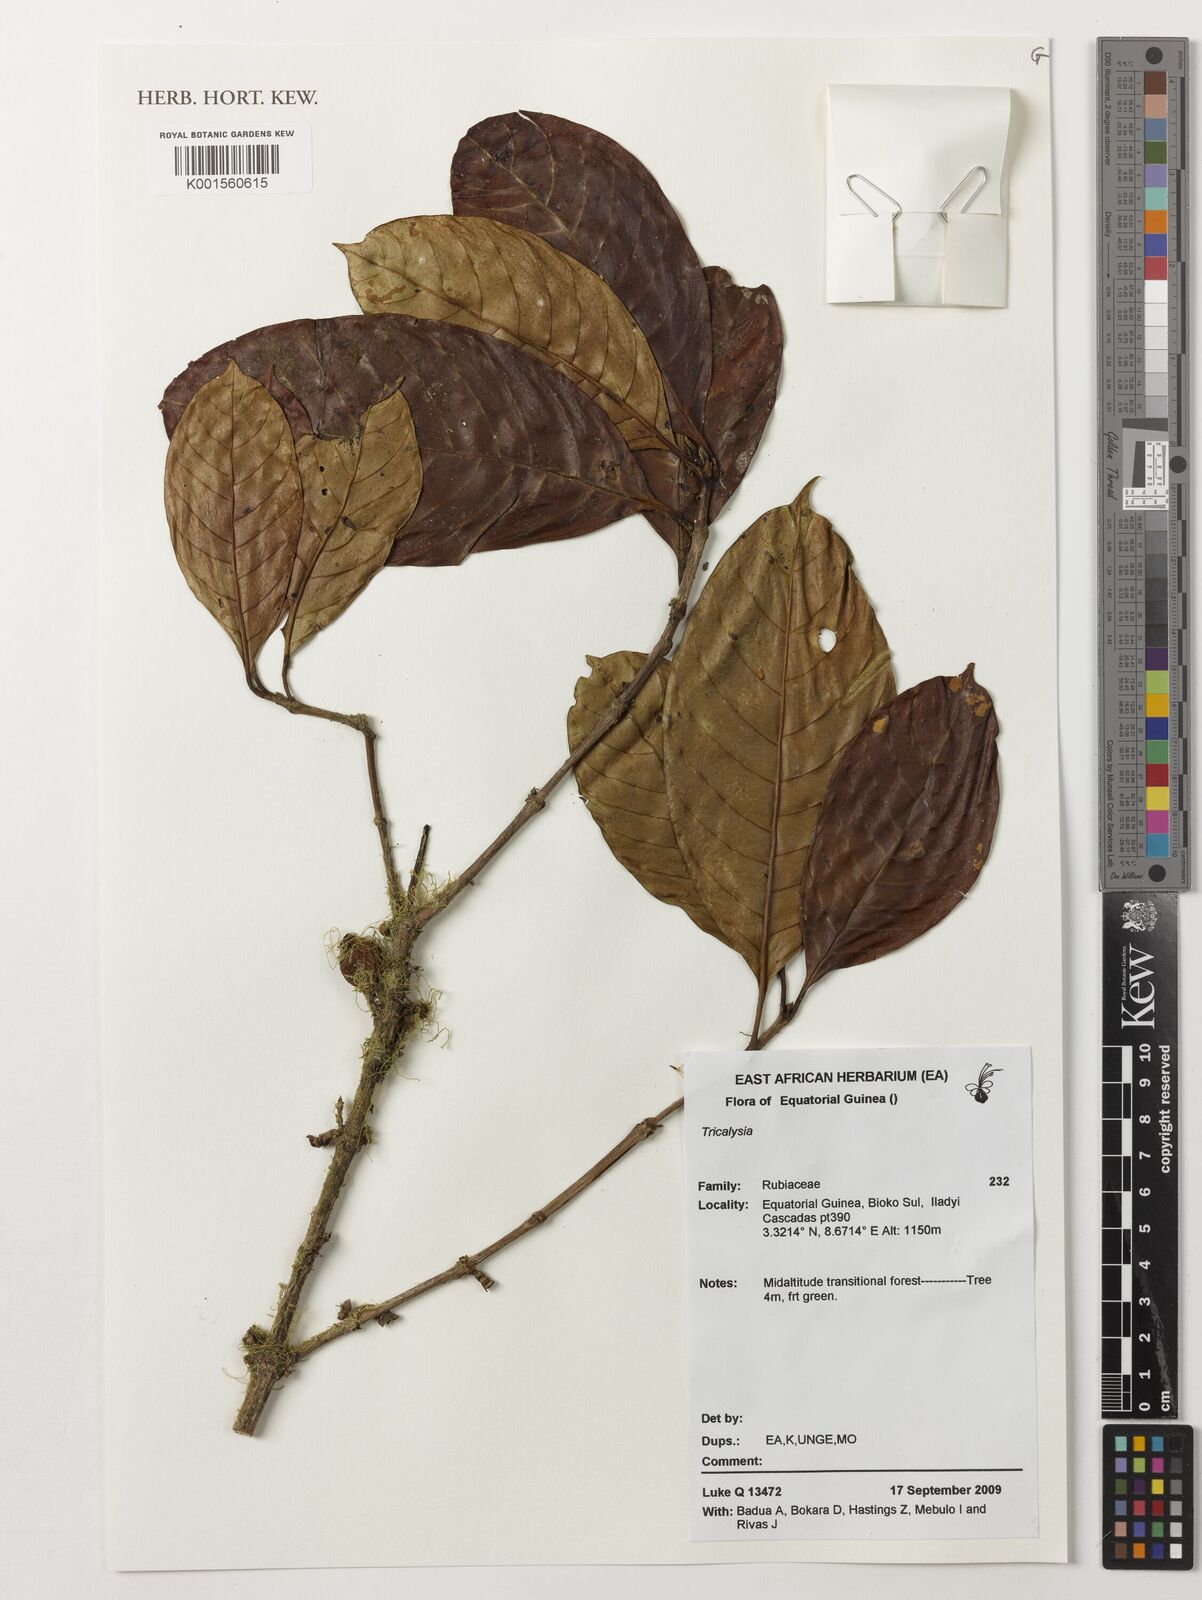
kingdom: Plantae
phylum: Tracheophyta
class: Magnoliopsida
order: Gentianales
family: Rubiaceae
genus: Tricalysia
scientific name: Tricalysia
